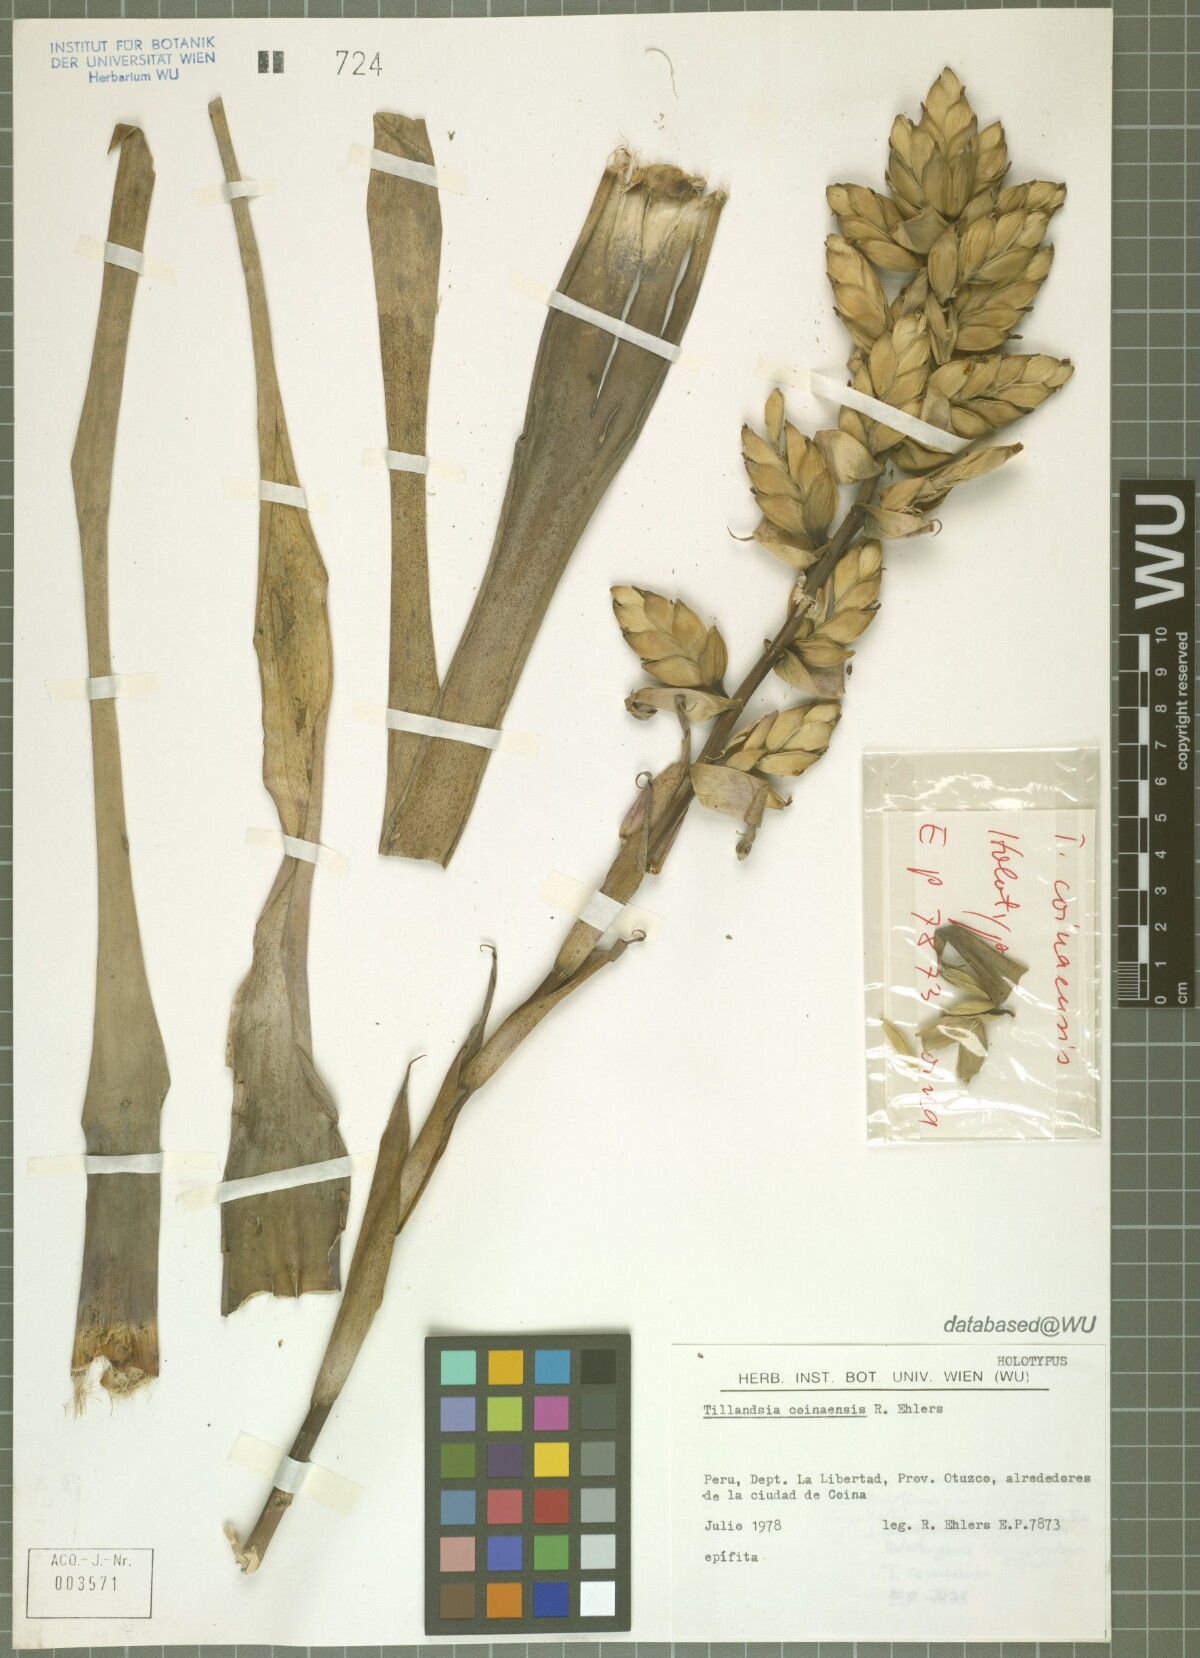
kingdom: Plantae
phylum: Tracheophyta
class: Liliopsida
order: Poales
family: Bromeliaceae
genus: Tillandsia
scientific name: Tillandsia coinaensis
